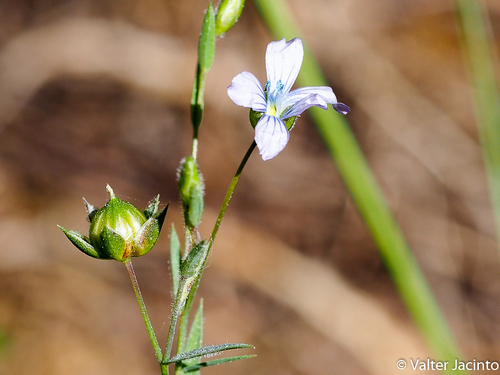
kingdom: Plantae
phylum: Tracheophyta
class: Magnoliopsida
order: Malpighiales
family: Linaceae
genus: Linum
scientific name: Linum bienne
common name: Pale flax
